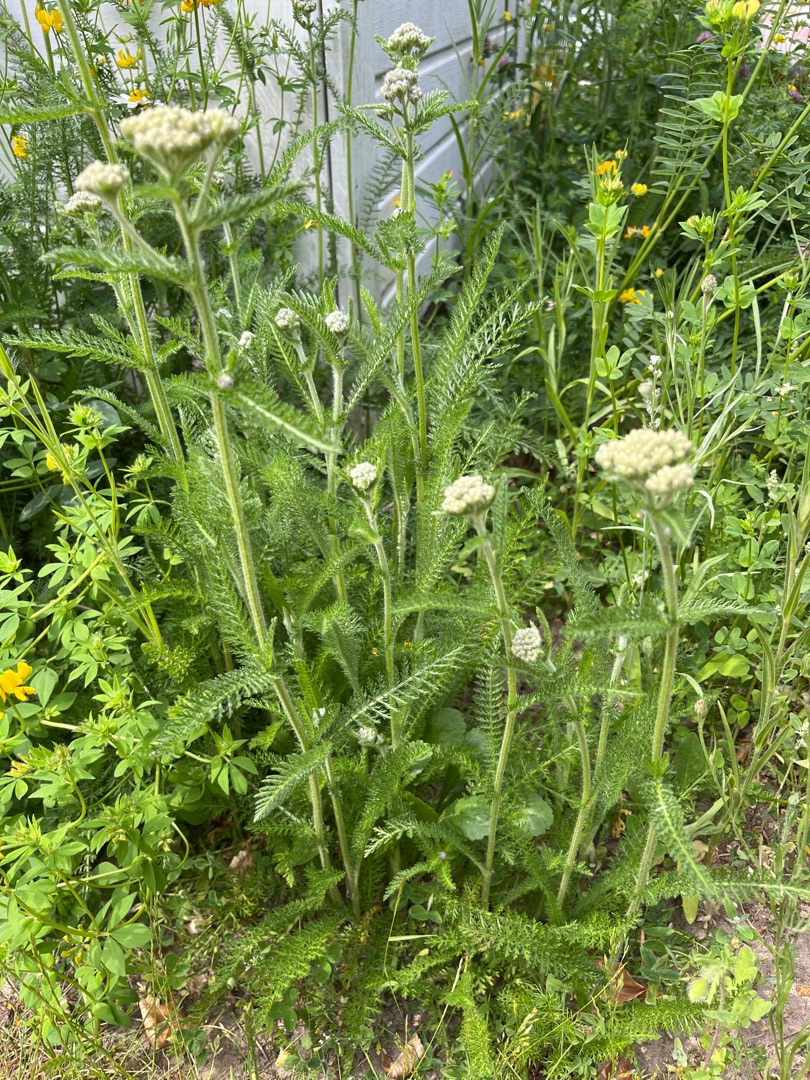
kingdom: Plantae
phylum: Tracheophyta
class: Magnoliopsida
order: Asterales
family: Asteraceae
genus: Achillea
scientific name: Achillea millefolium
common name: Almindelig røllike
